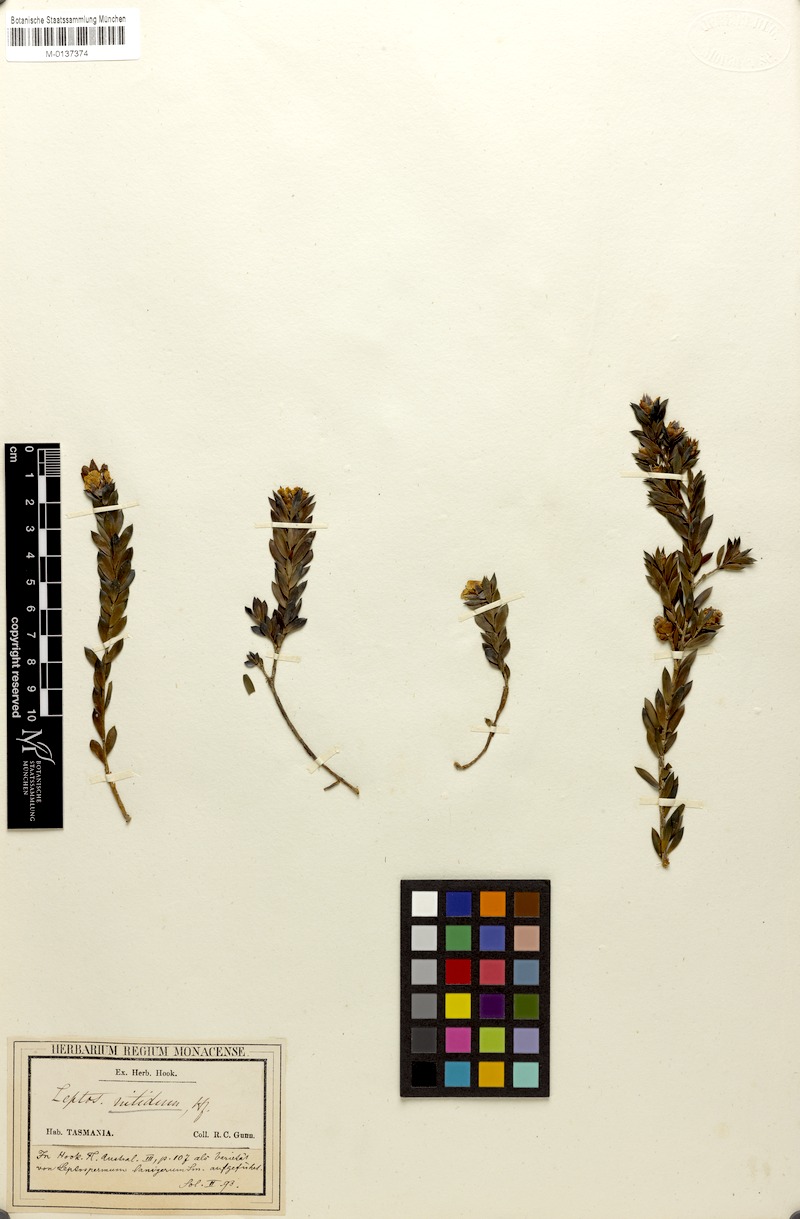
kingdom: Plantae
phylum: Tracheophyta
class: Magnoliopsida
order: Myrtales
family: Myrtaceae
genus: Leptospermum
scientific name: Leptospermum nitidum
